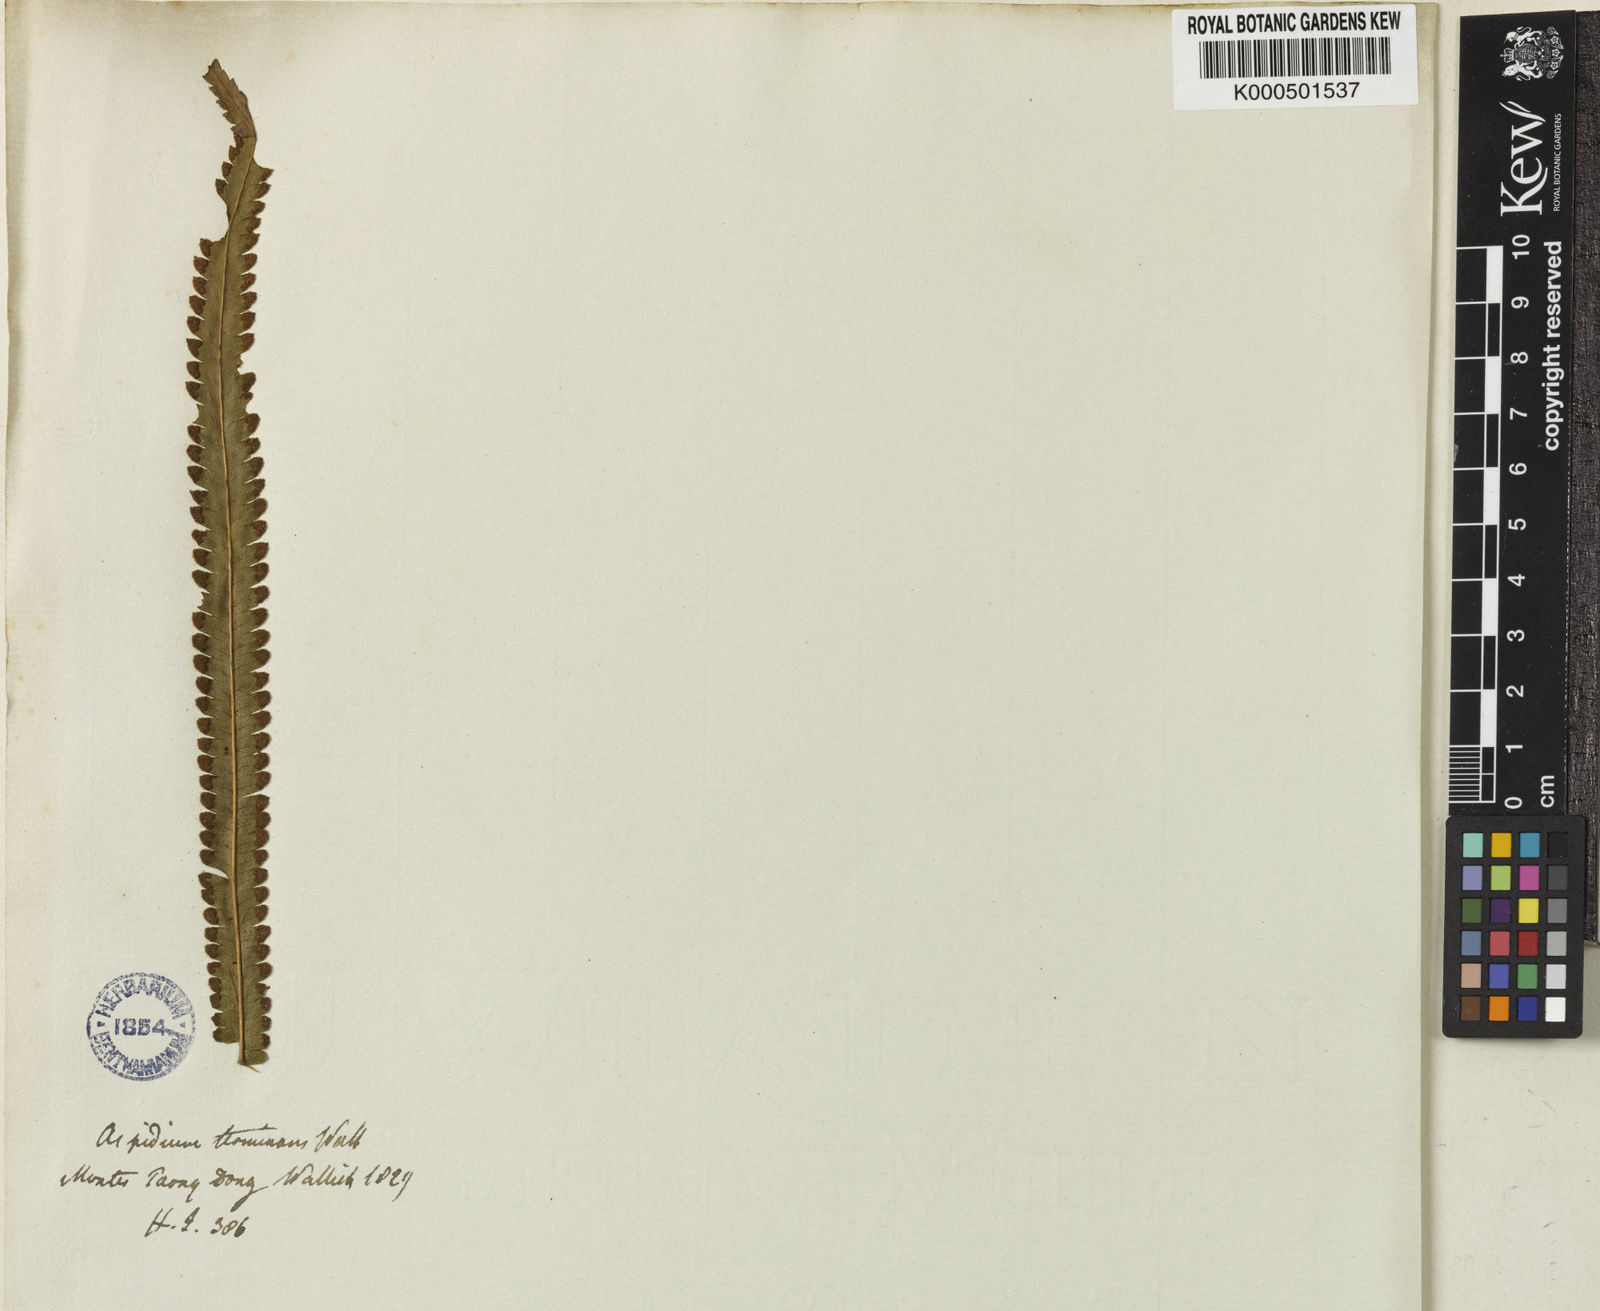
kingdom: Plantae
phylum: Tracheophyta
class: Polypodiopsida
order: Polypodiales
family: Thelypteridaceae
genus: Amblovenatum
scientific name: Amblovenatum terminans
